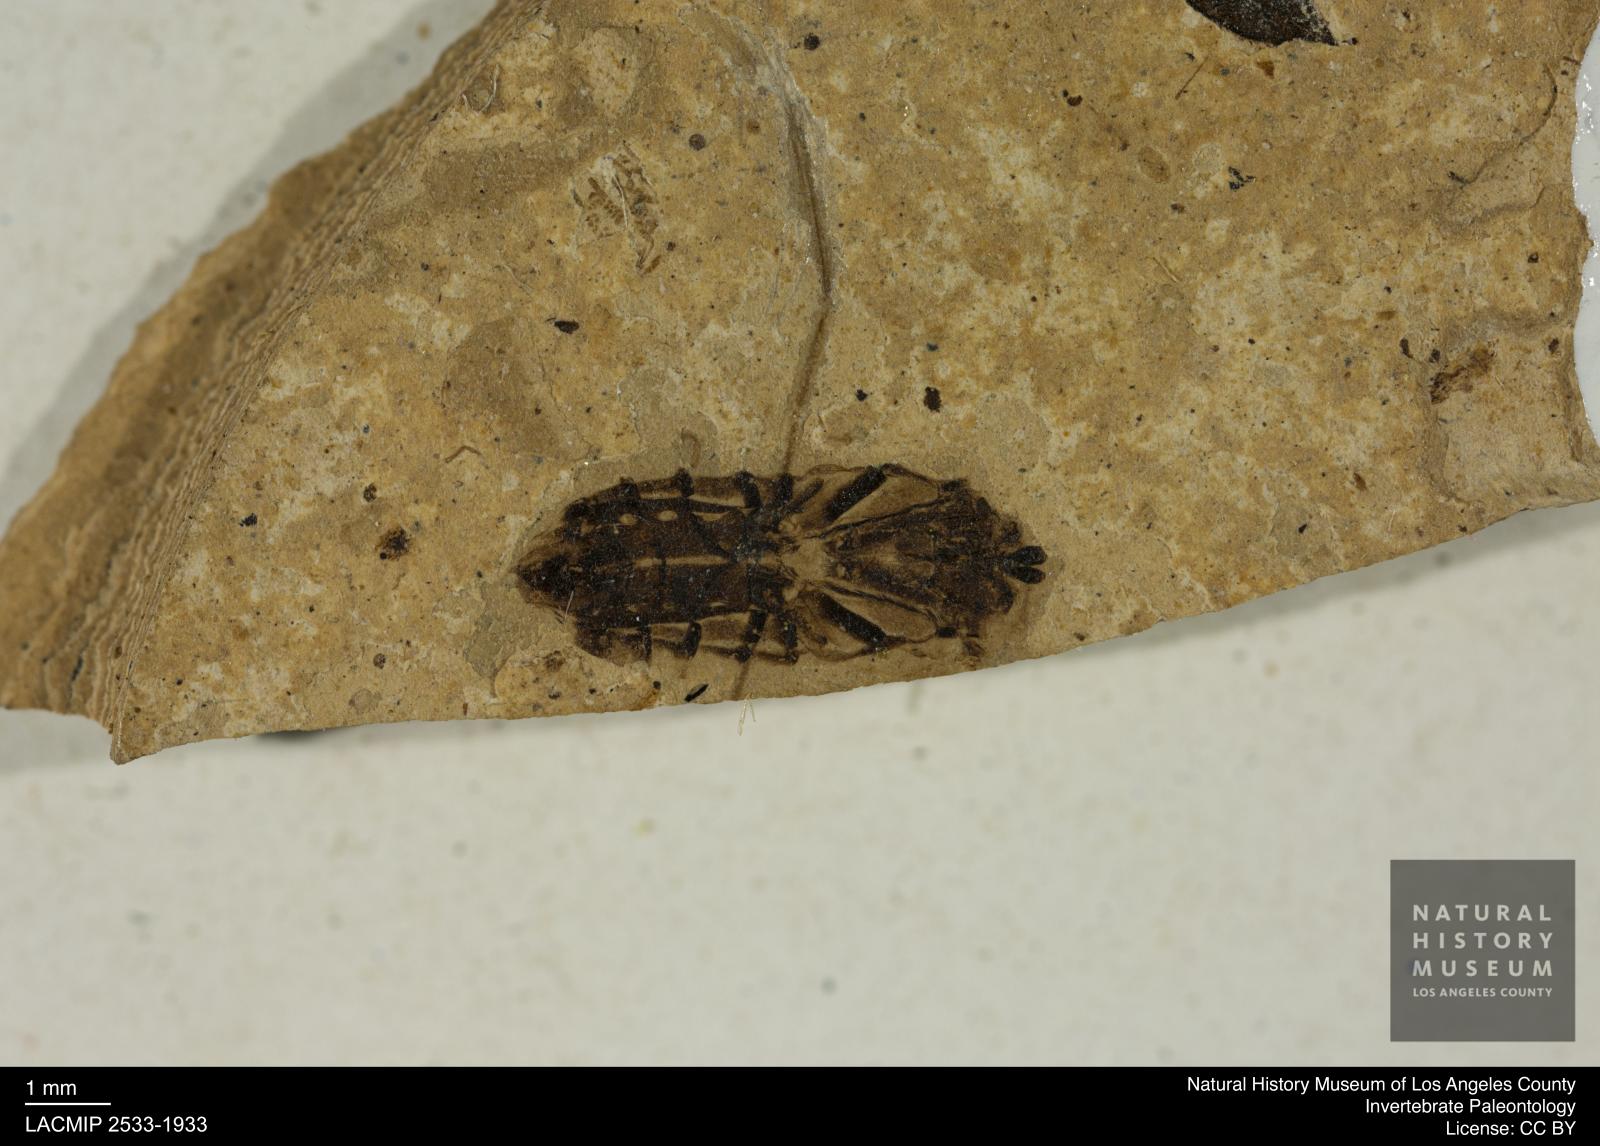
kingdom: Animalia
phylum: Arthropoda
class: Insecta
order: Hemiptera
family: Notonectidae
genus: Anisops
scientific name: Anisops Notonecta deichmuelleri
